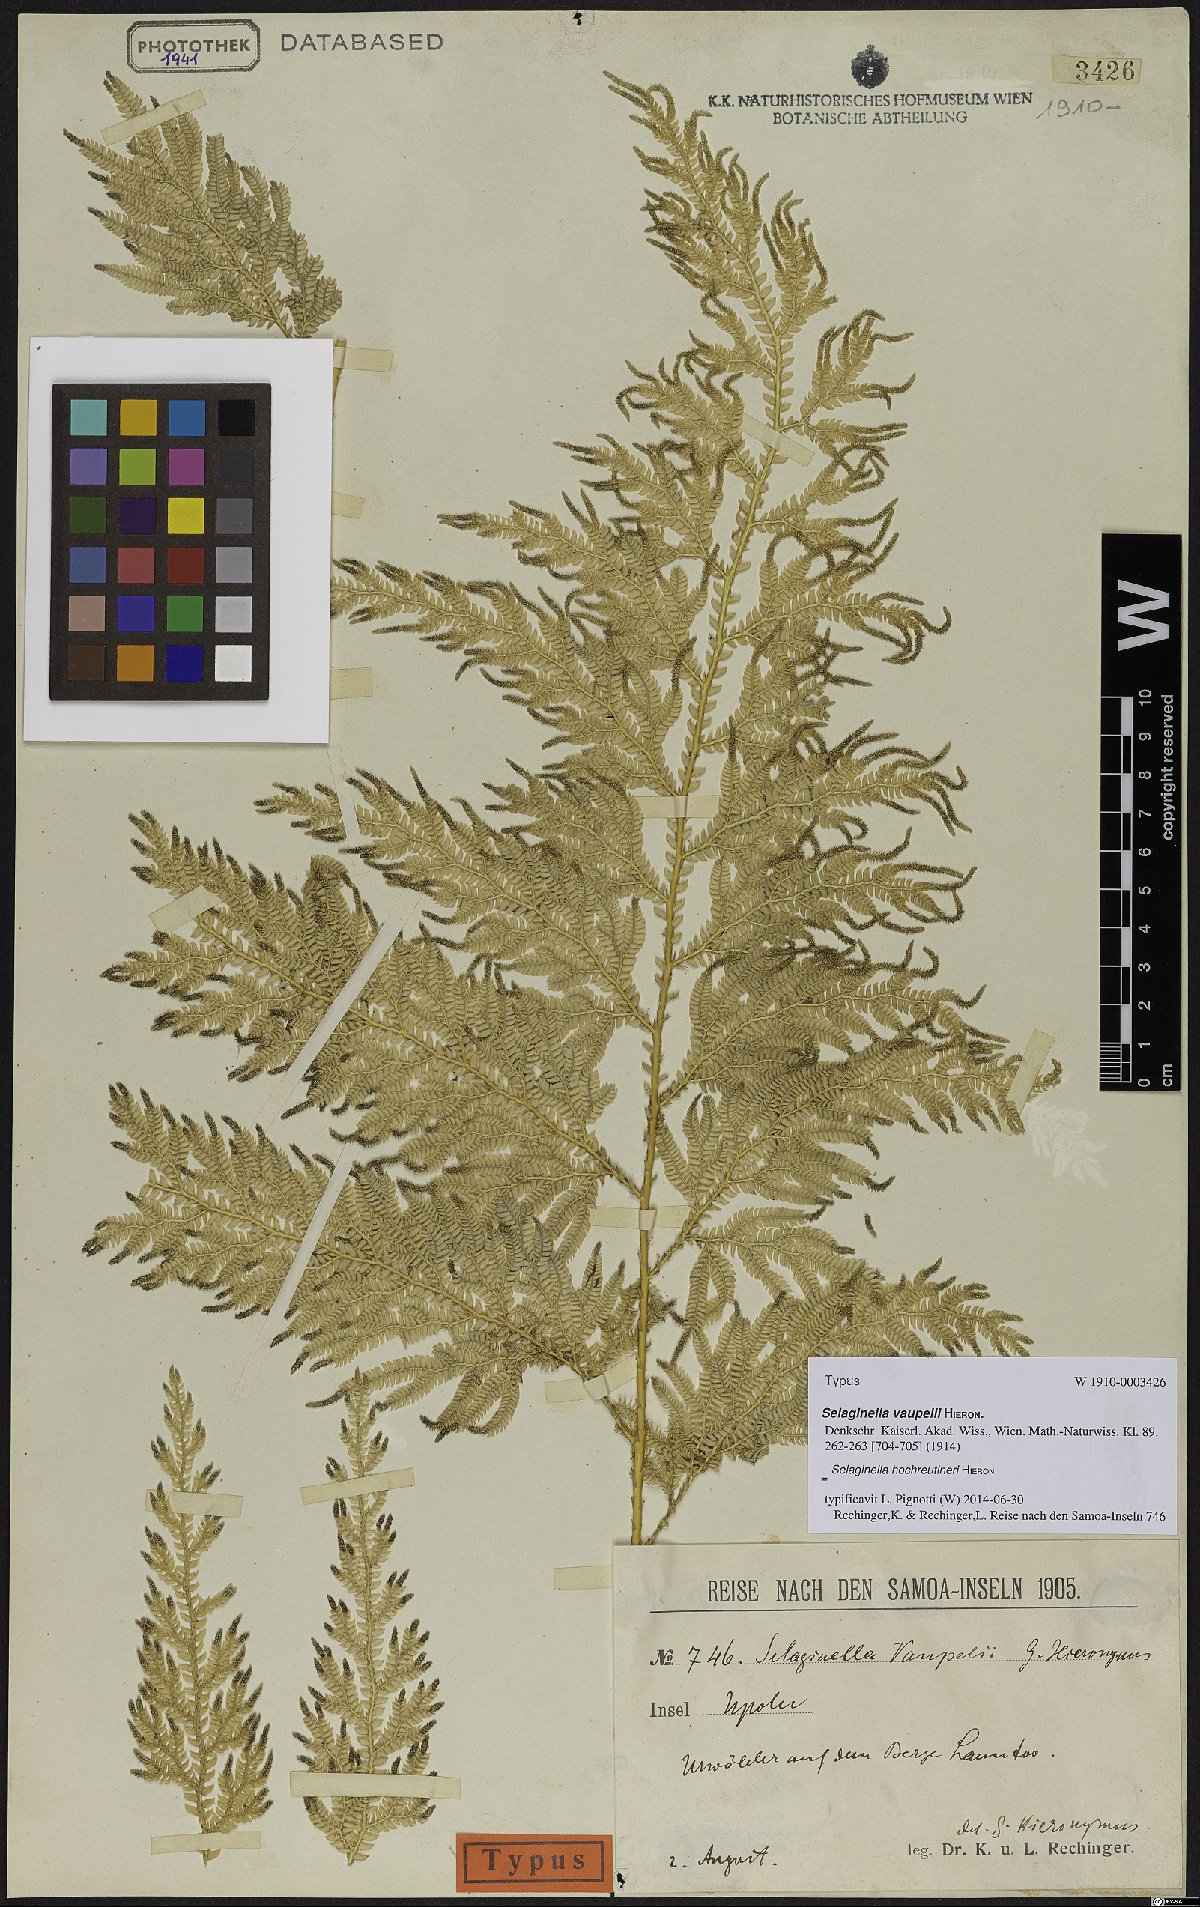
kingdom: Plantae
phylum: Tracheophyta
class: Lycopodiopsida
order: Selaginellales
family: Selaginellaceae
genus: Selaginella
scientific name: Selaginella hochreutineri
